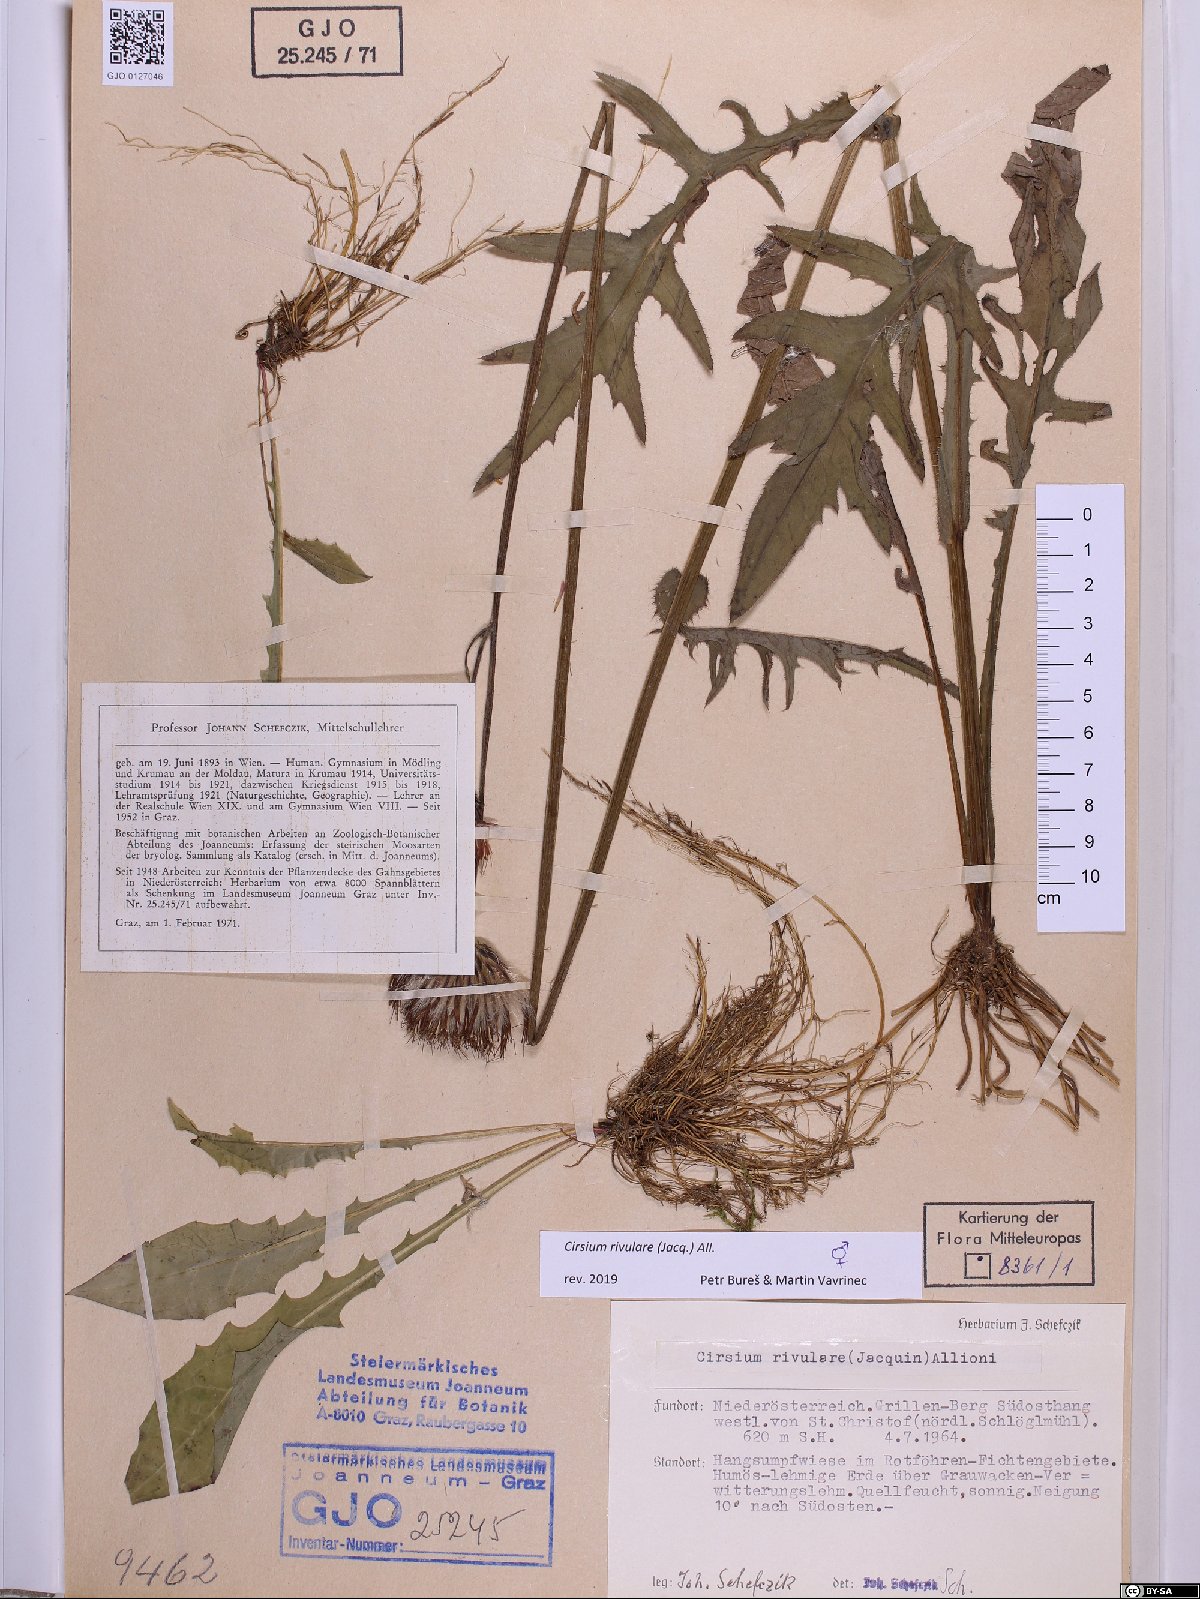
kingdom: Plantae
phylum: Tracheophyta
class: Magnoliopsida
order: Asterales
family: Asteraceae
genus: Cirsium
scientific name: Cirsium rivulare
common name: Brook thistle
